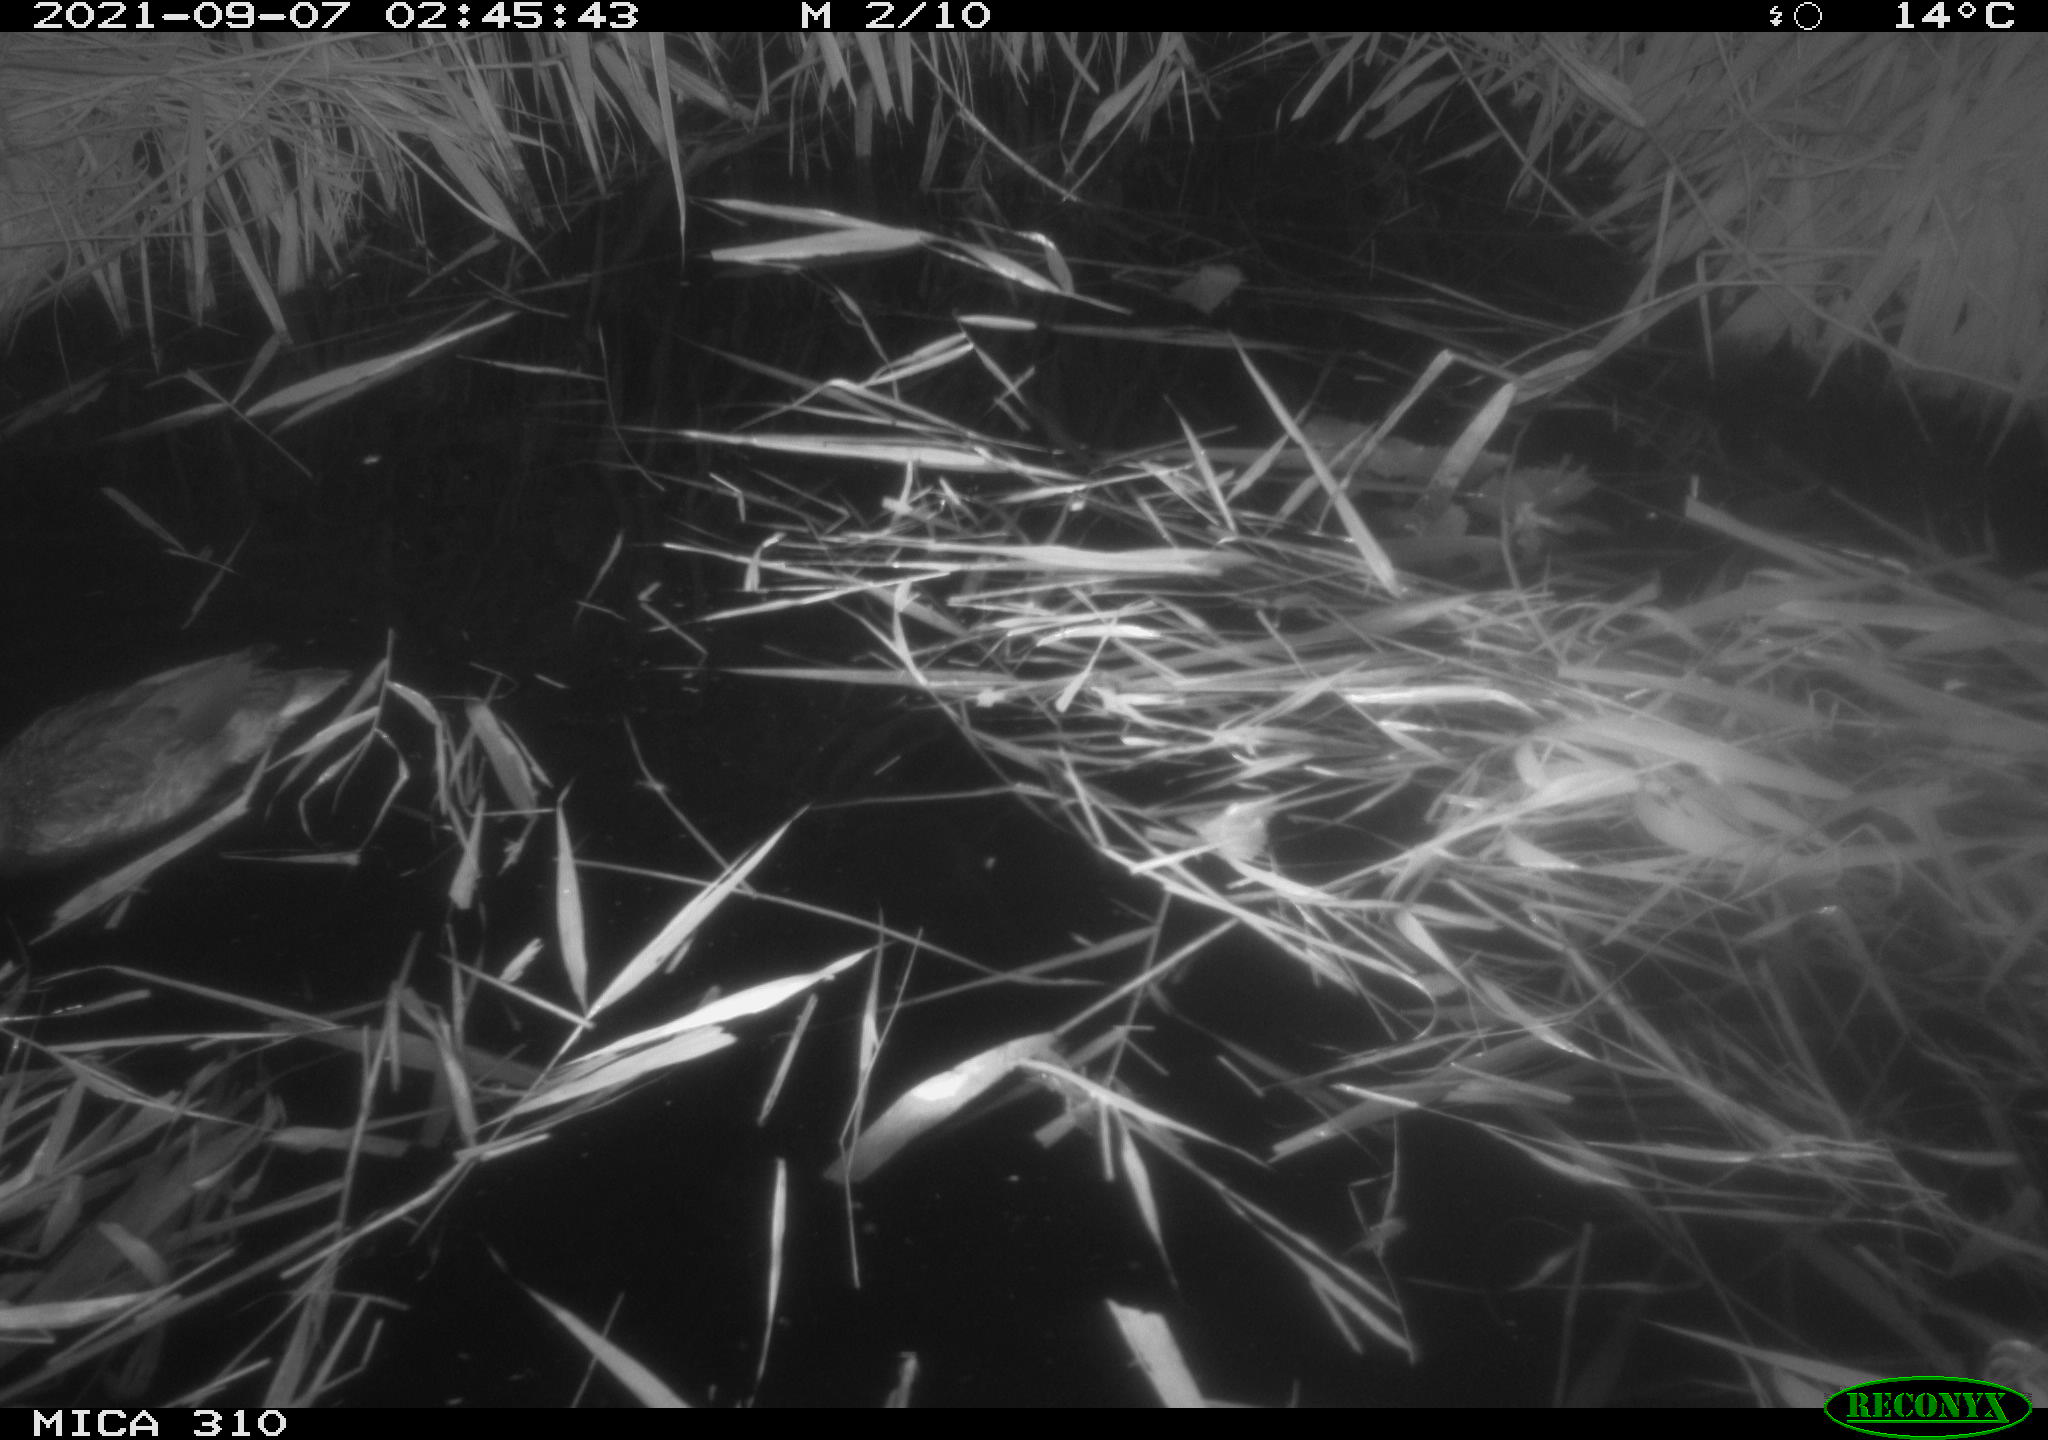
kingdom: Animalia
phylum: Chordata
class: Aves
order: Anseriformes
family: Anatidae
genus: Mareca
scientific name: Mareca strepera
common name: Gadwall
